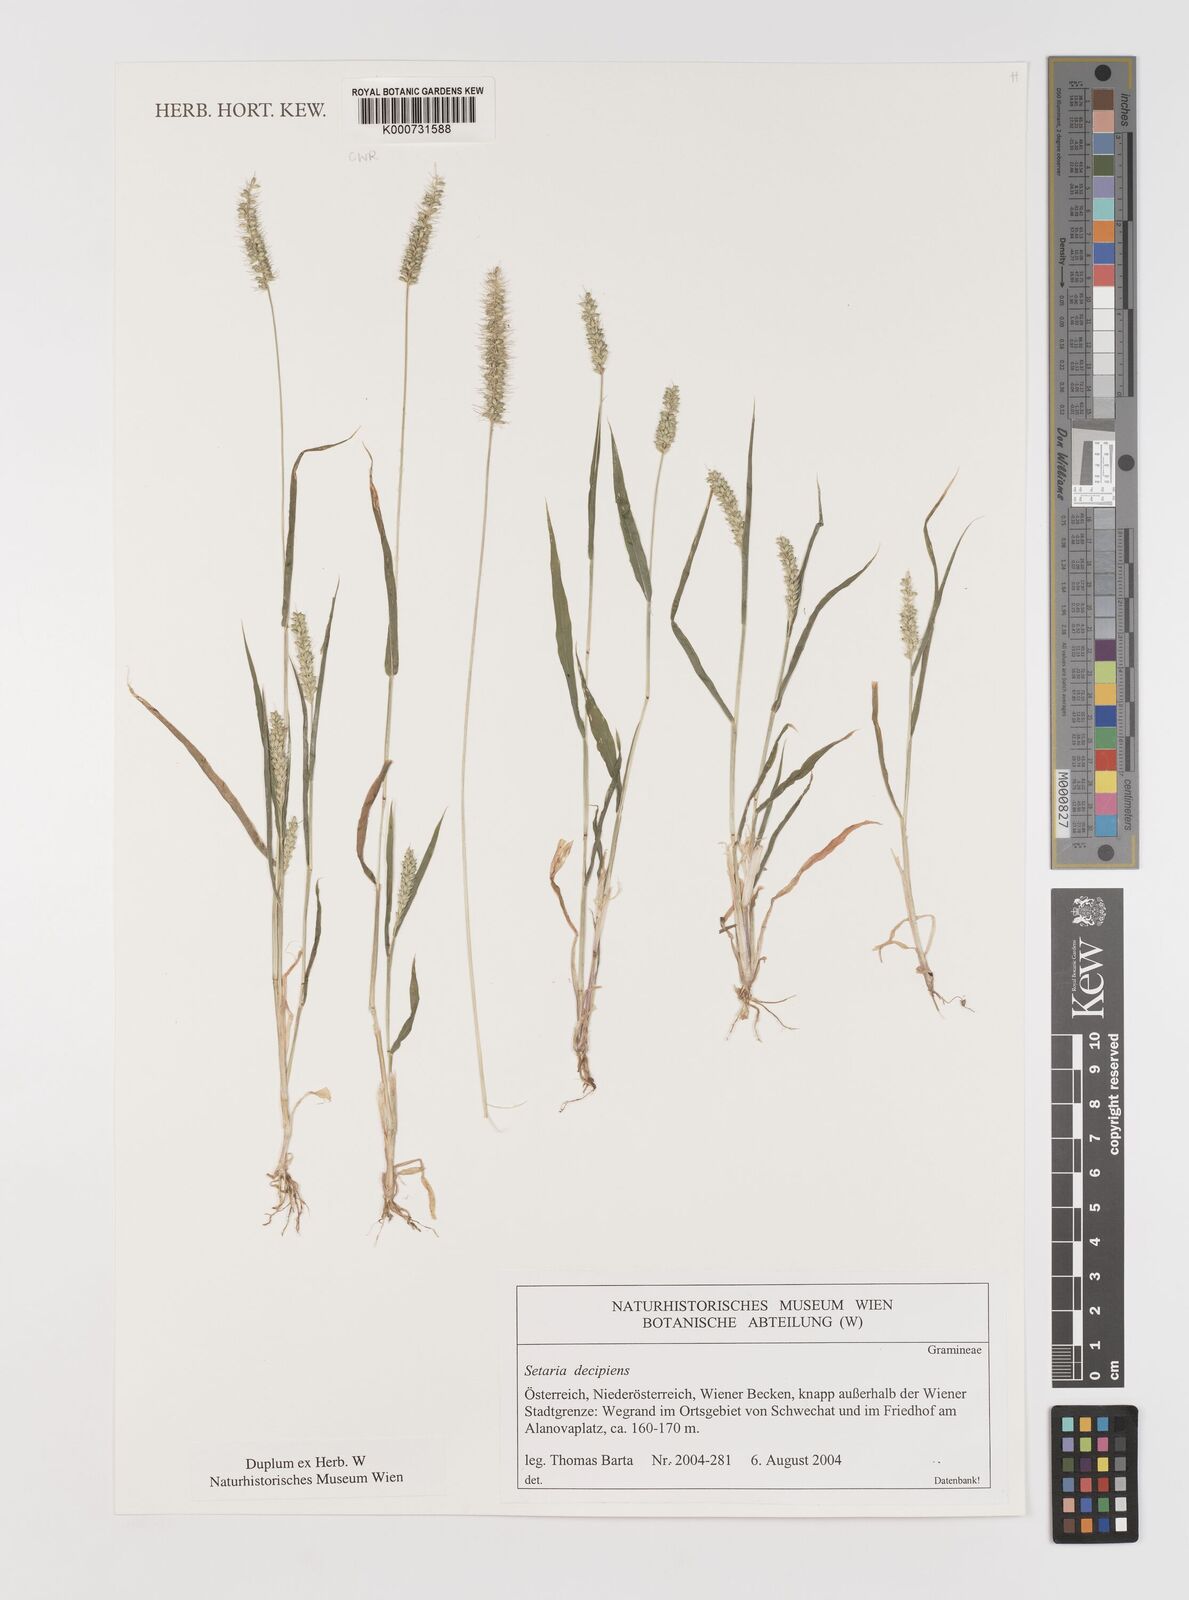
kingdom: Plantae
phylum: Tracheophyta
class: Liliopsida
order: Poales
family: Poaceae
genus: Setaria
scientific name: Setaria sphacelata
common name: African bristlegrass
